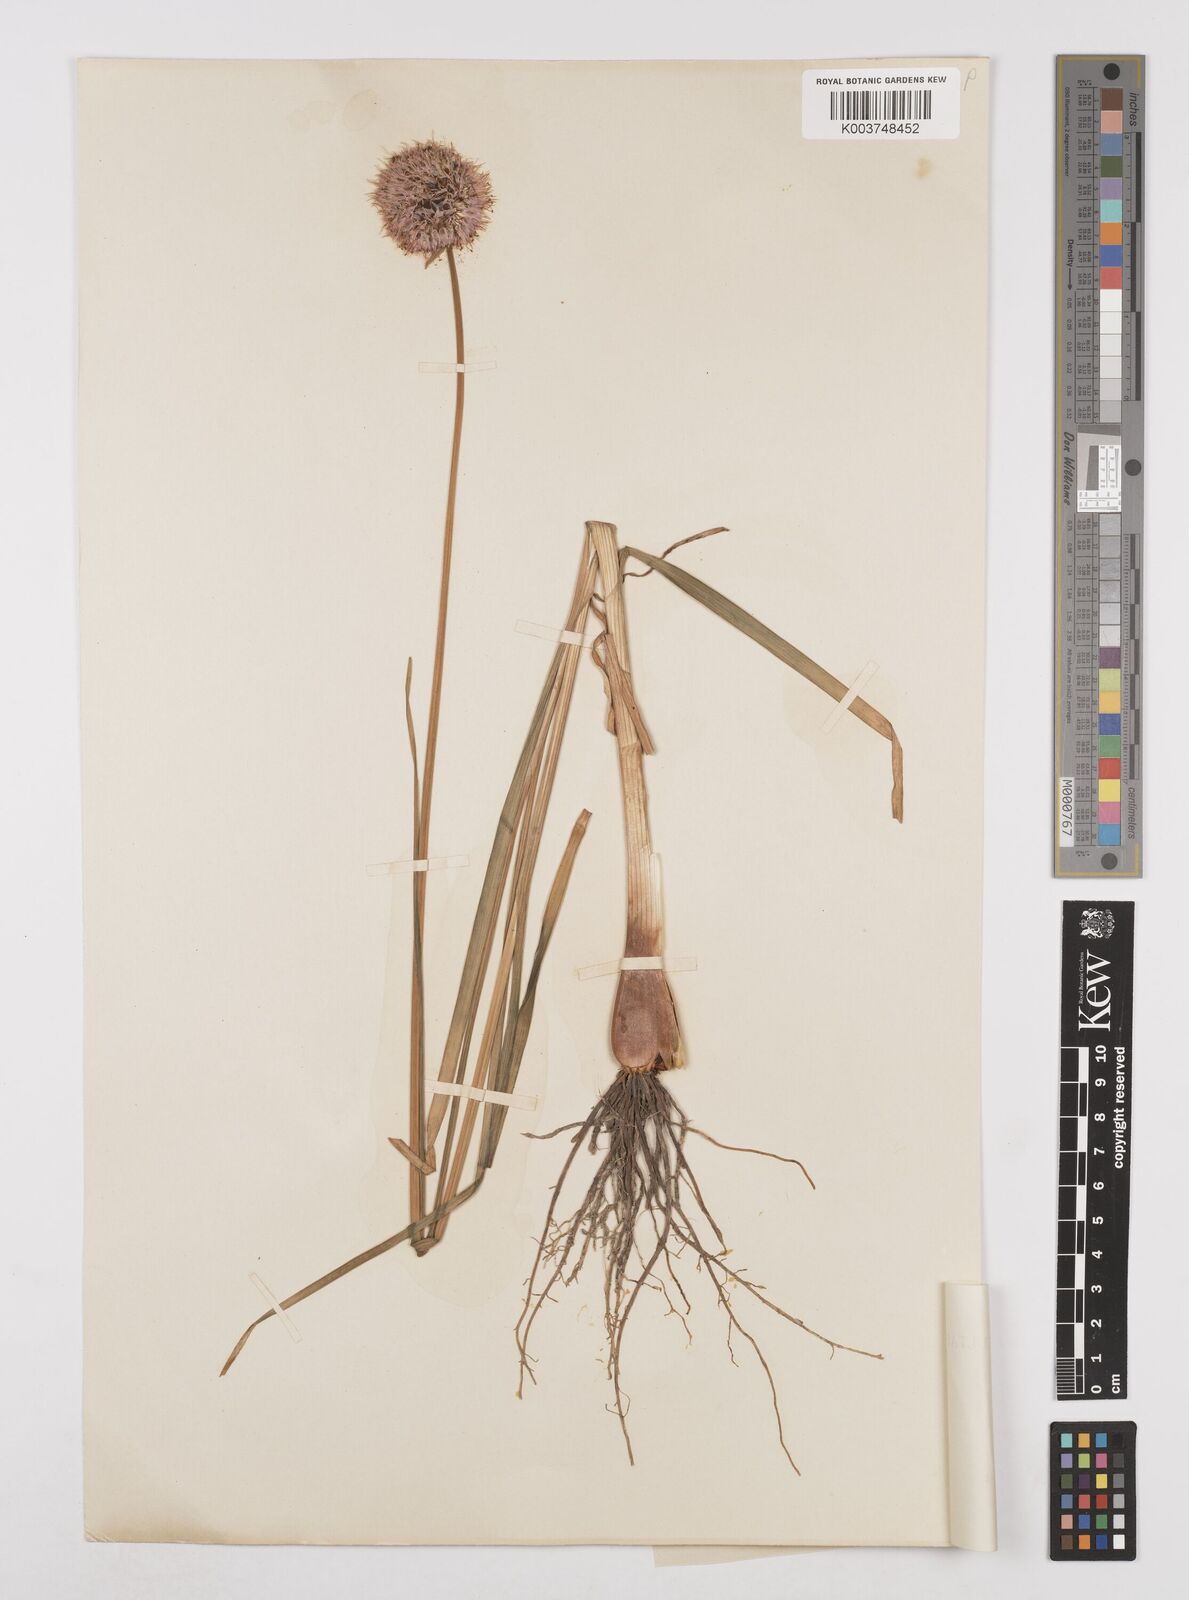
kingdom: Plantae
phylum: Tracheophyta
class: Liliopsida
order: Asparagales
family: Amaryllidaceae
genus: Allium
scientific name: Allium lineare
